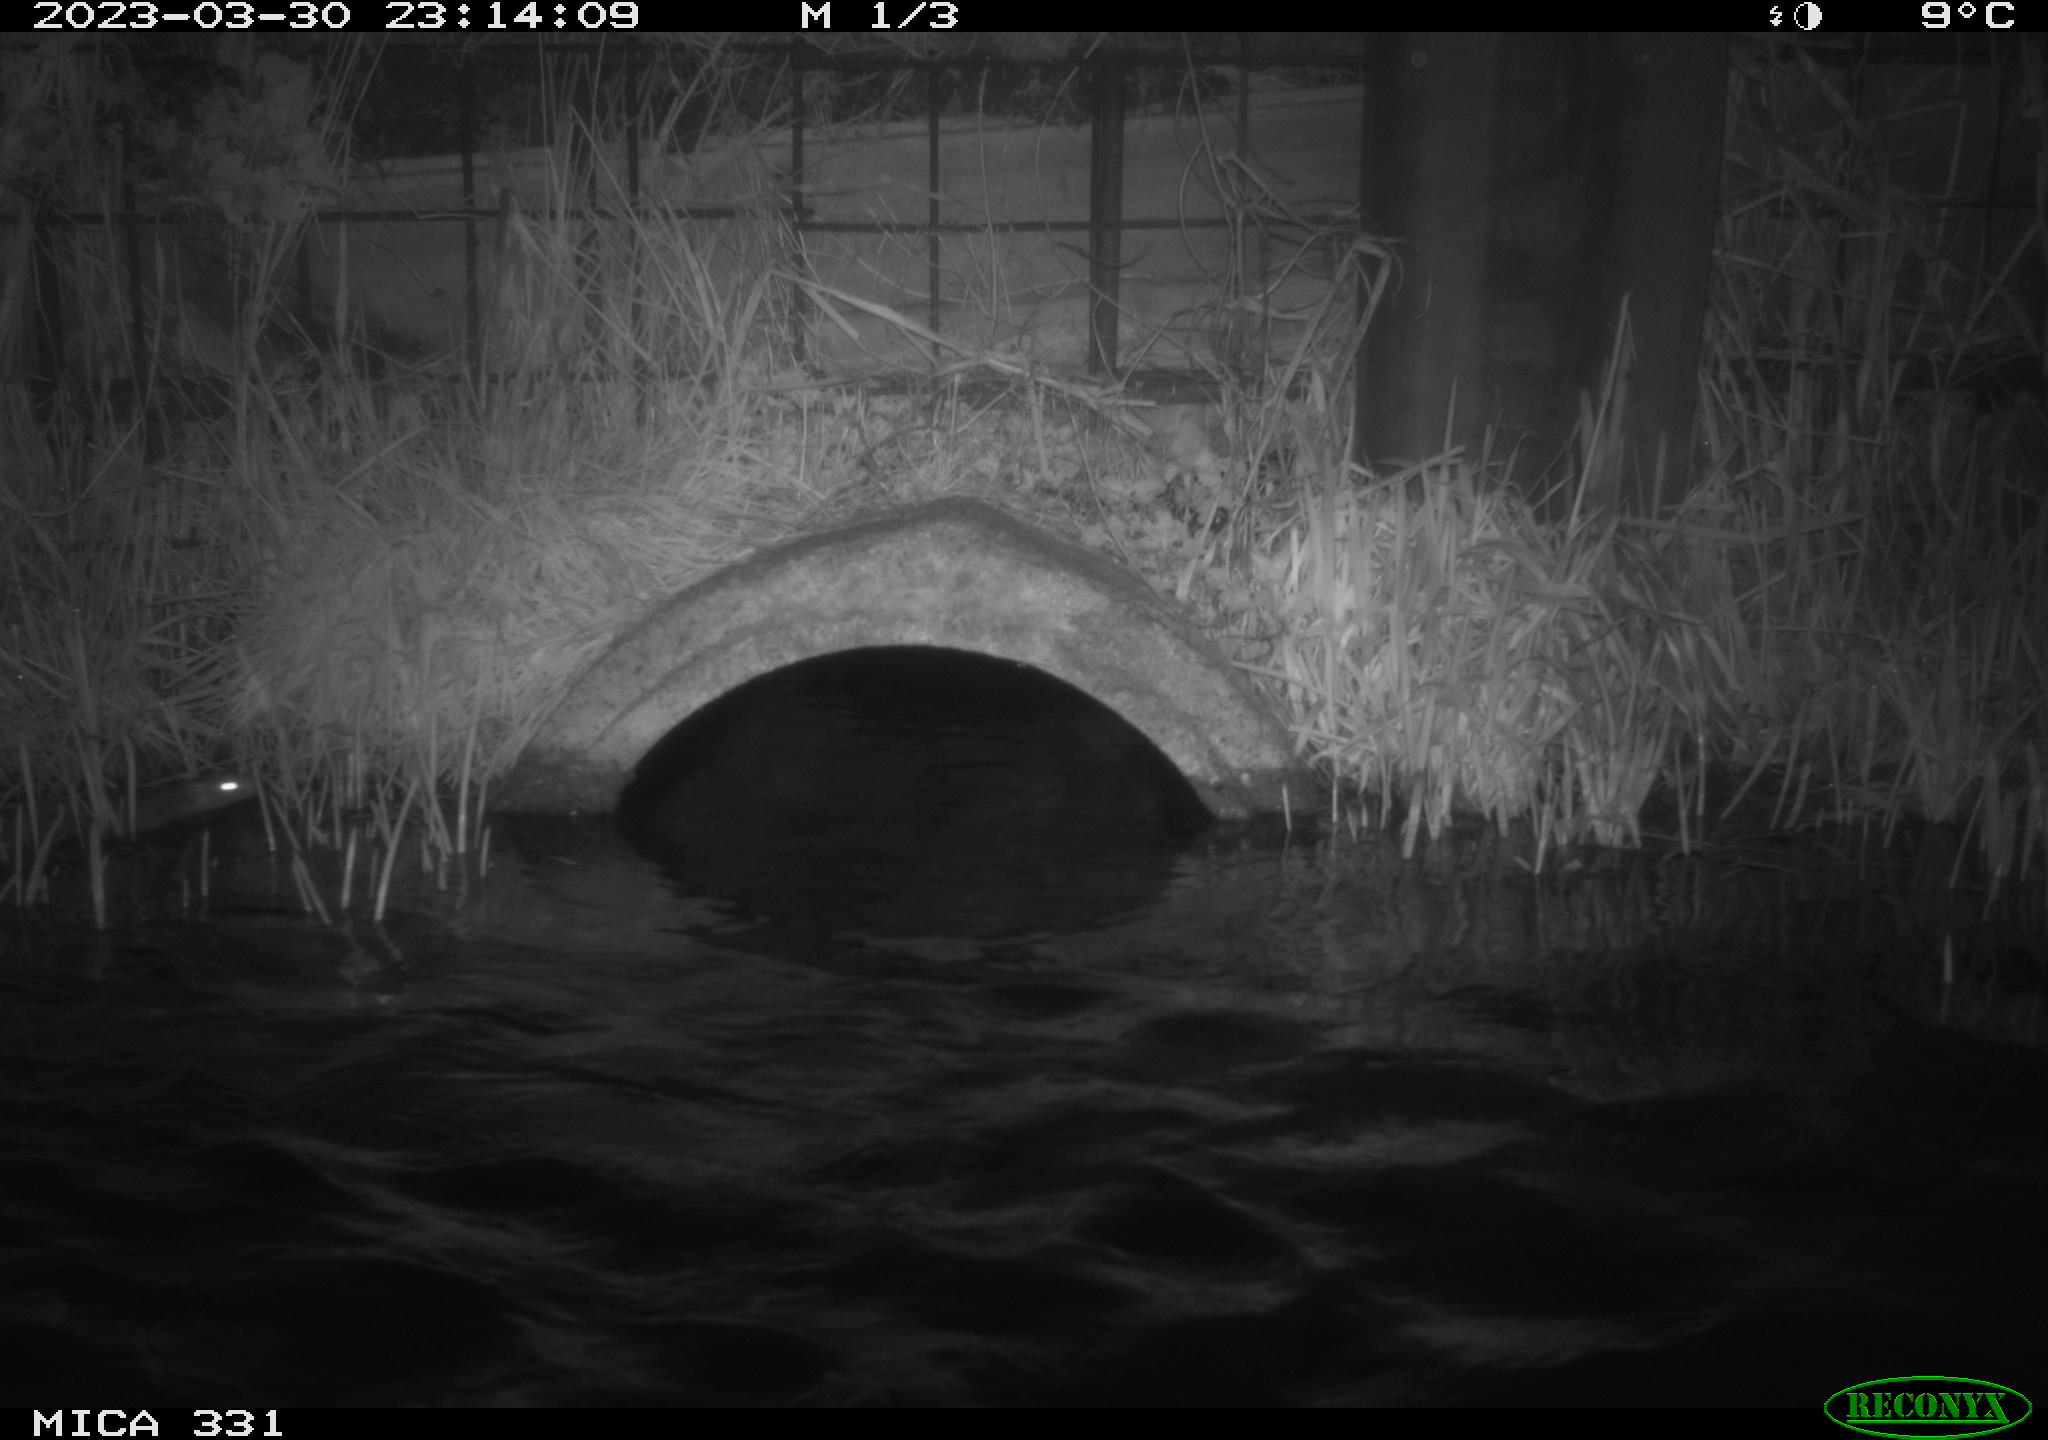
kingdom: Animalia
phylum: Chordata
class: Mammalia
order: Rodentia
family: Muridae
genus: Rattus
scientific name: Rattus norvegicus
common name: Brown rat
